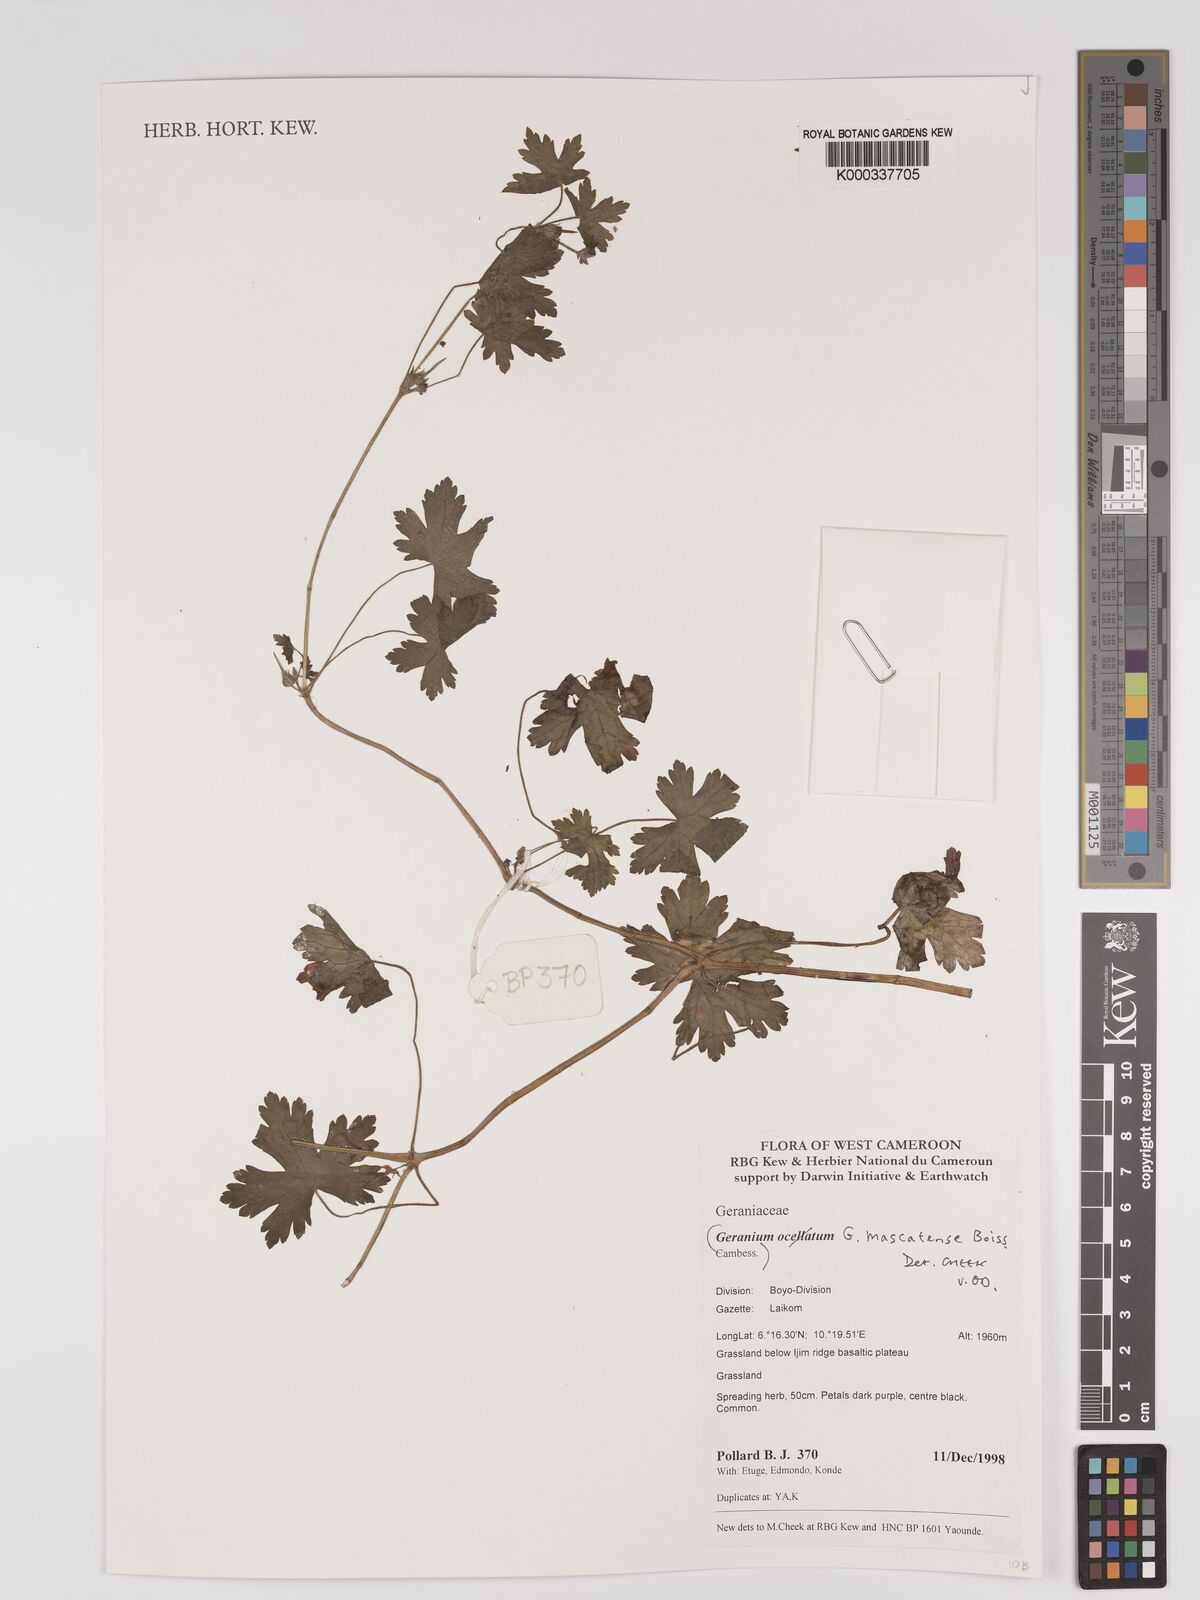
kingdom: Plantae
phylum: Tracheophyta
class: Magnoliopsida
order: Geraniales
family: Geraniaceae
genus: Geranium
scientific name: Geranium mascatense
